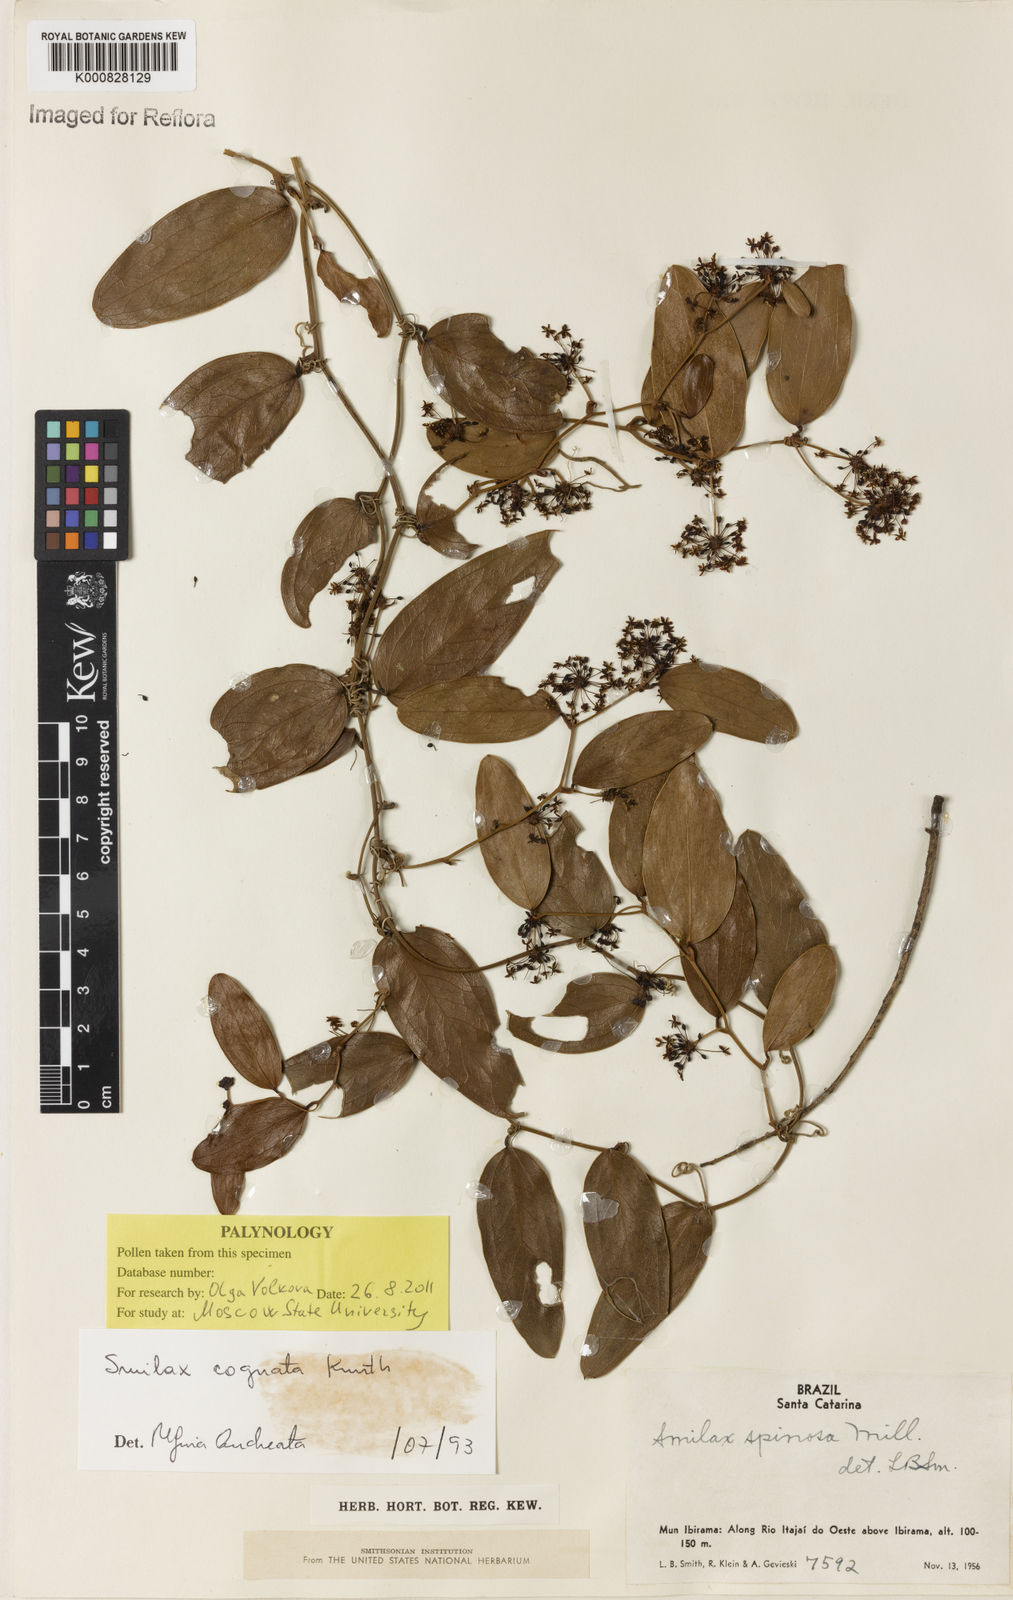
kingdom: Plantae
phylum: Tracheophyta
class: Liliopsida
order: Liliales
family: Smilacaceae
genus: Smilax
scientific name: Smilax cognata
